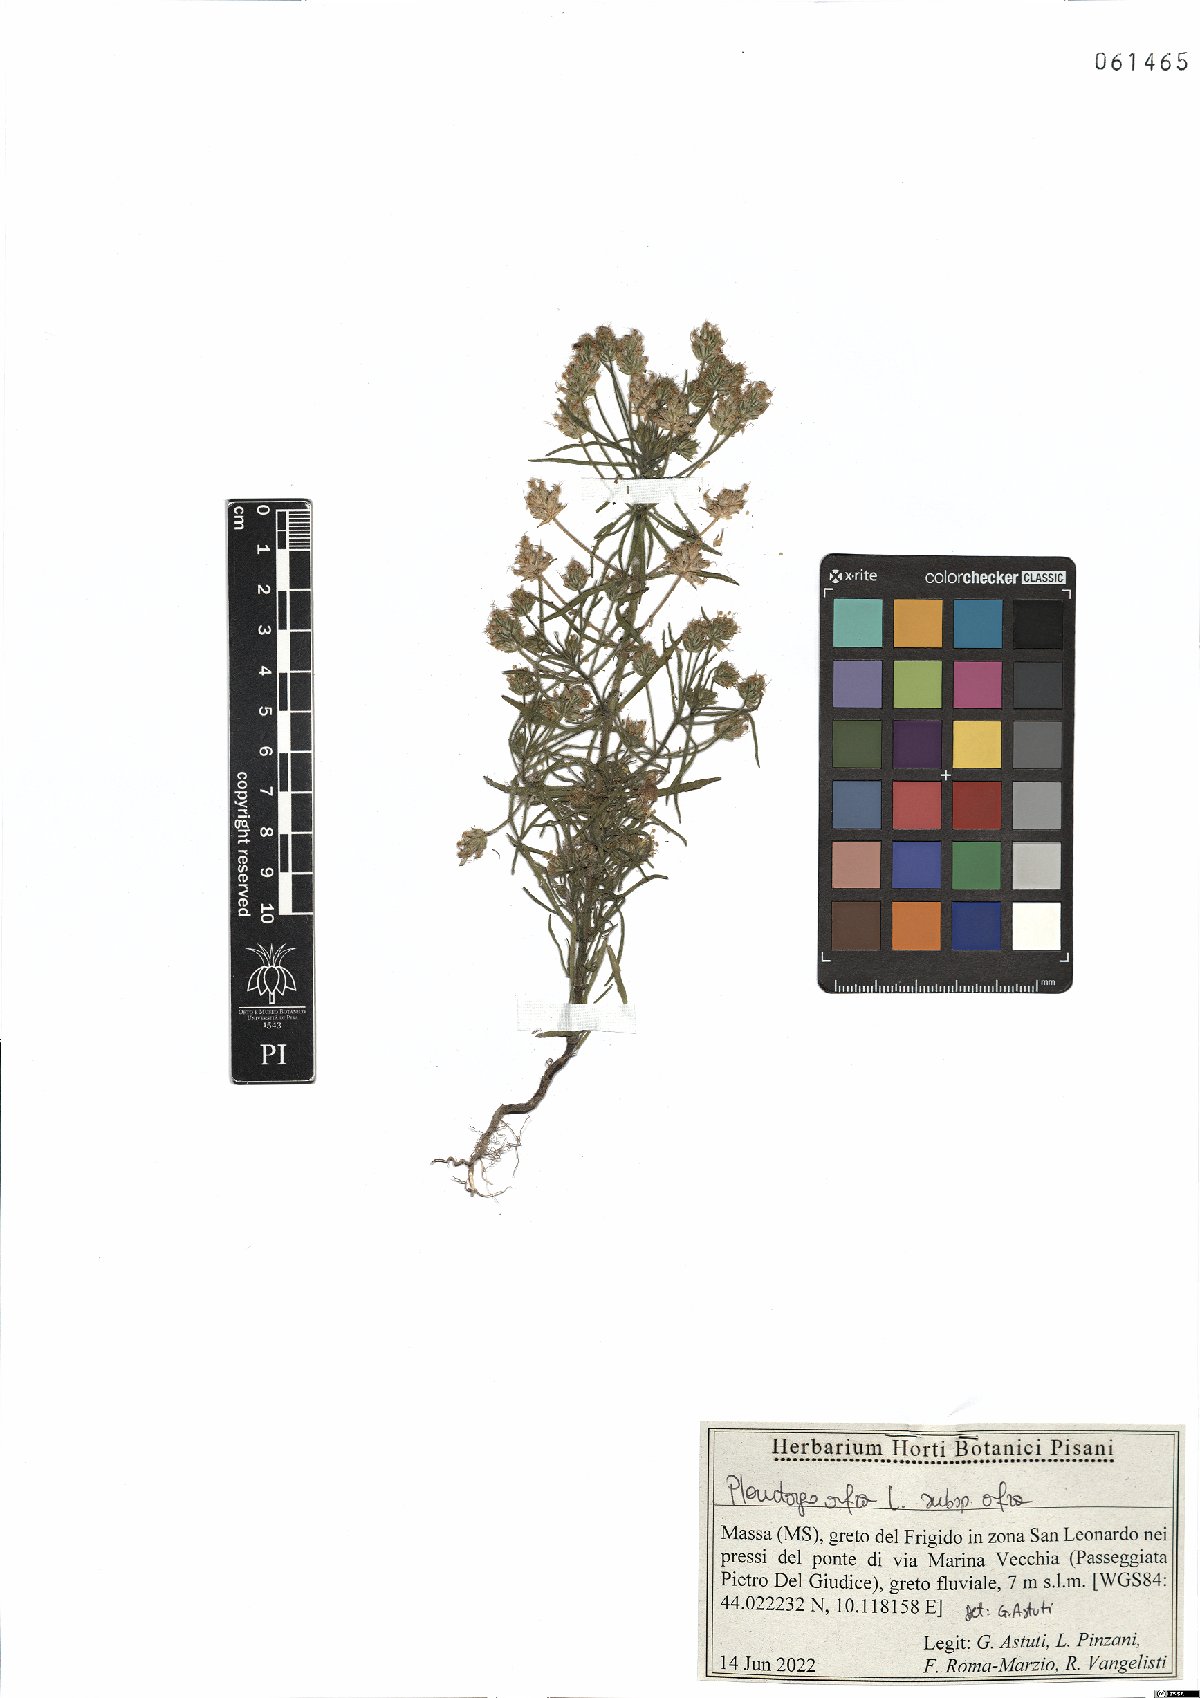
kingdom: Plantae
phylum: Tracheophyta
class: Magnoliopsida
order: Lamiales
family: Plantaginaceae
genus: Plantago
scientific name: Plantago afra
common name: Glandular plantain
